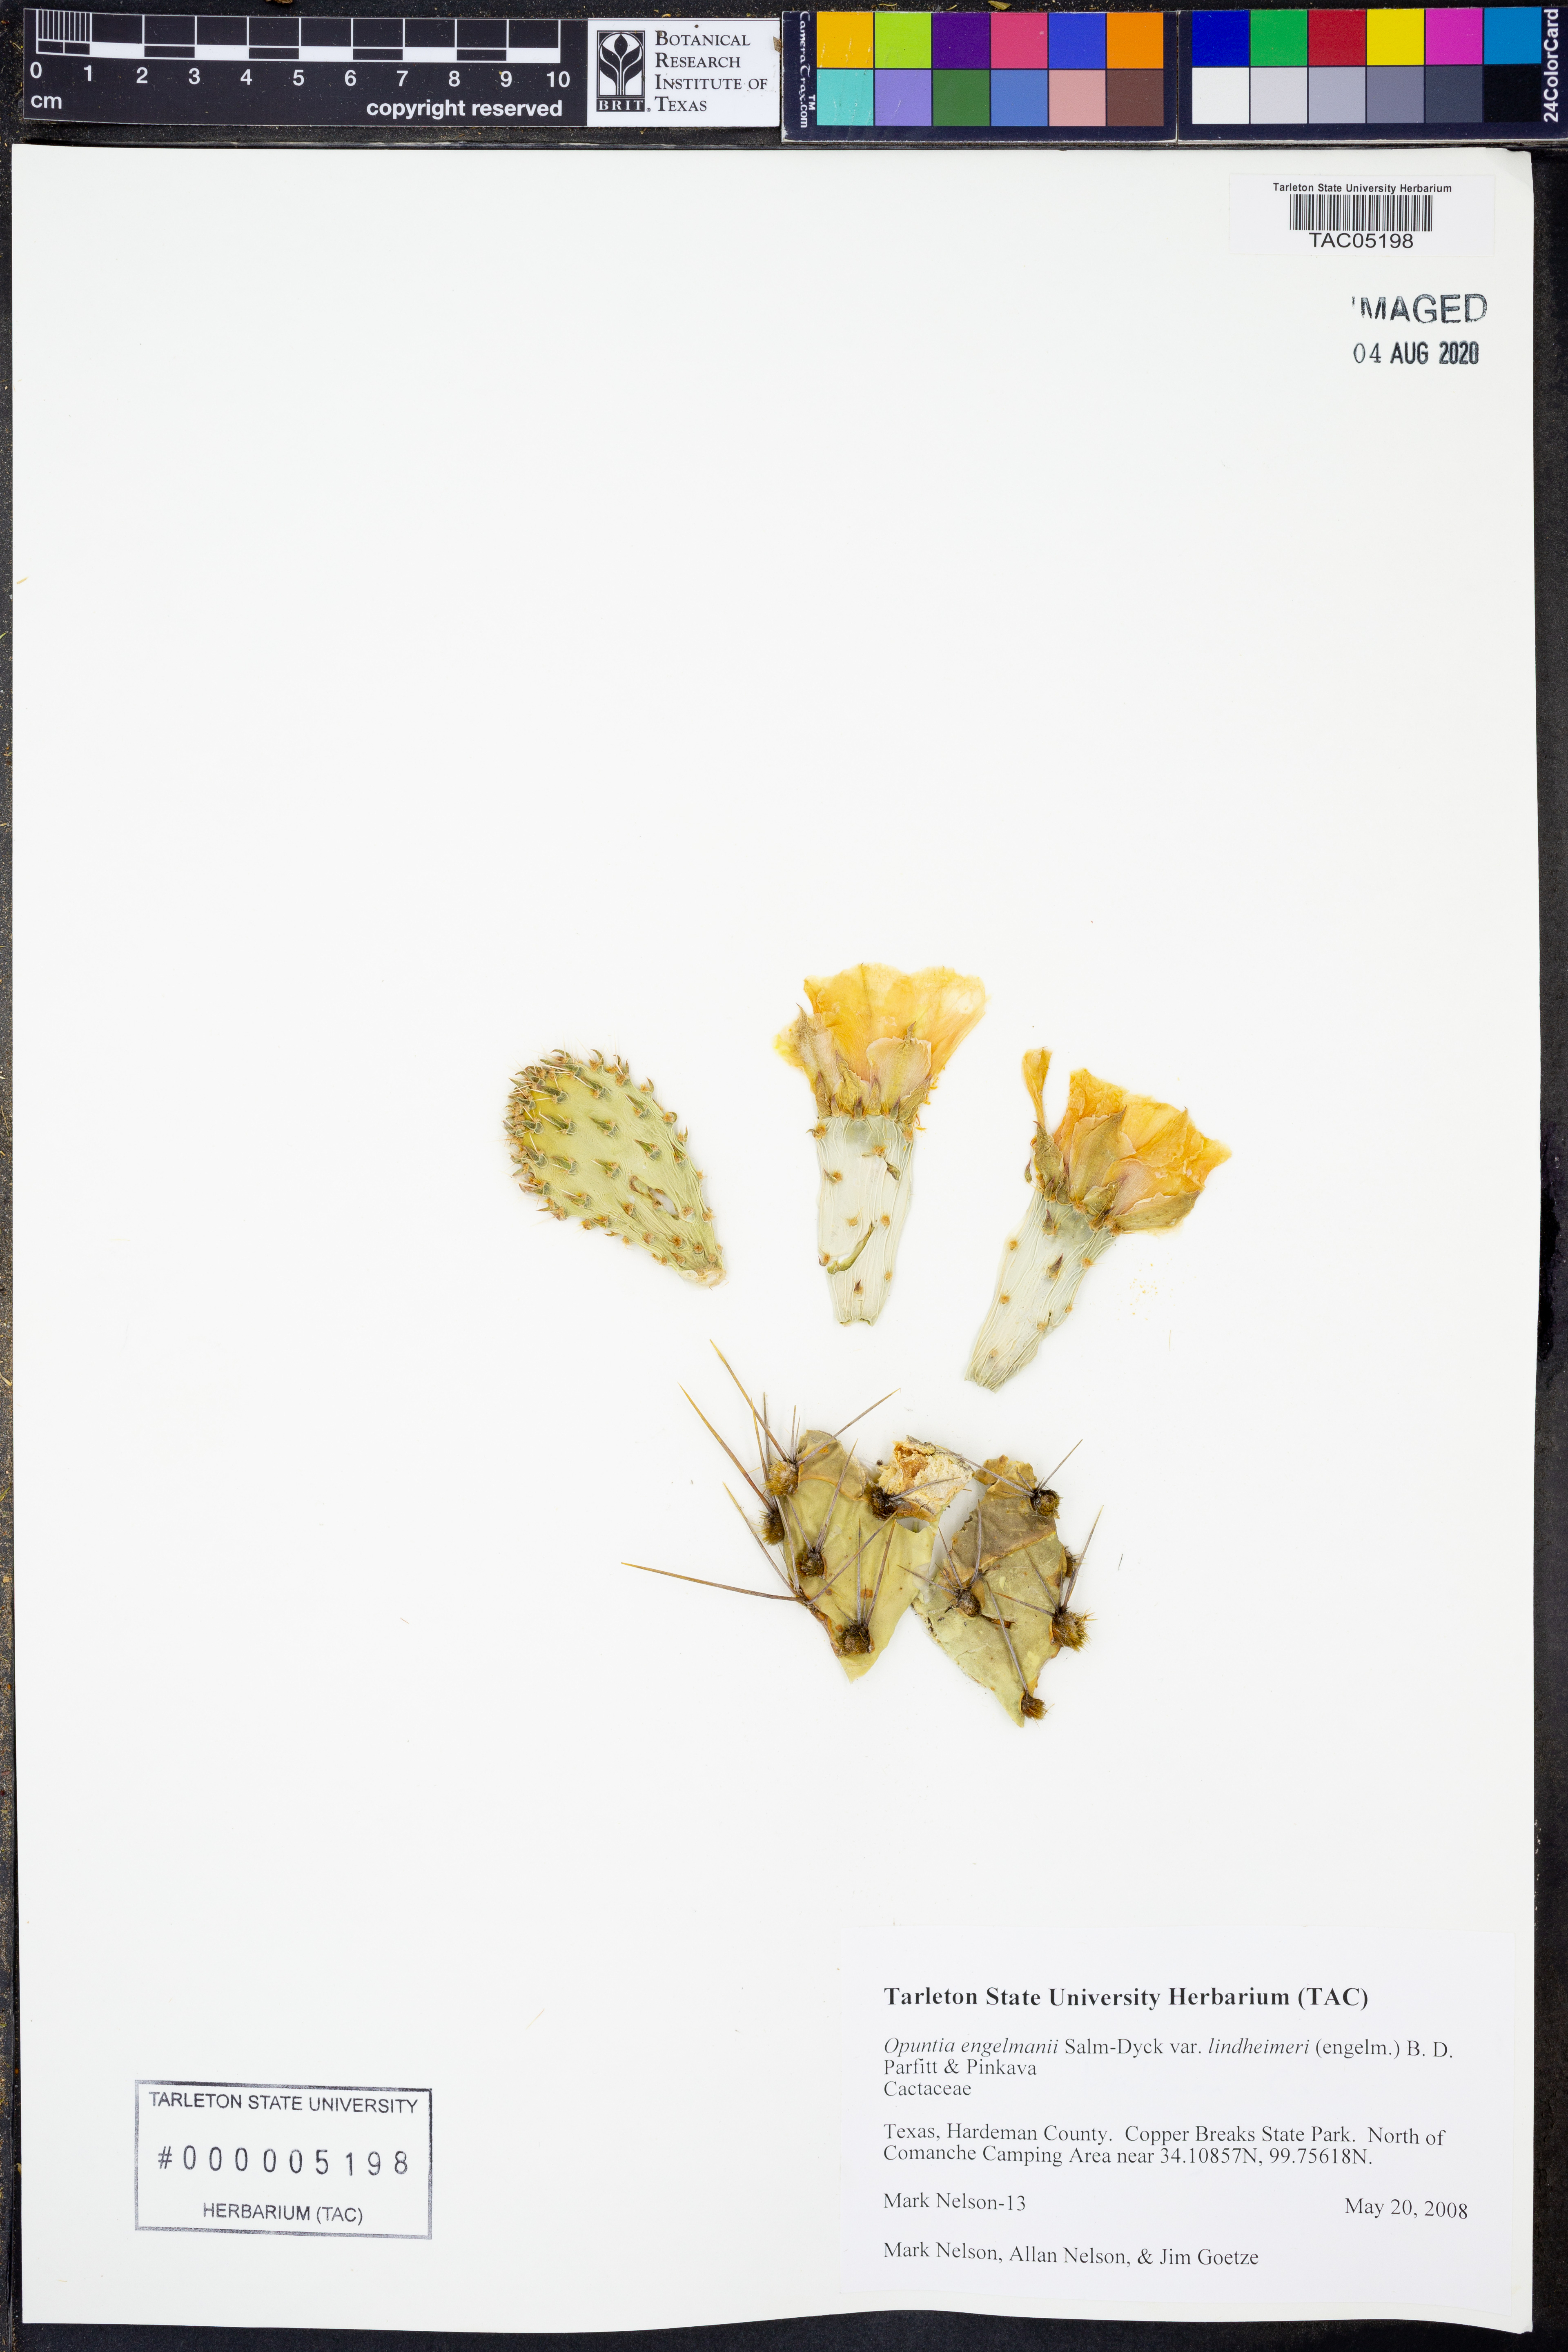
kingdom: Plantae
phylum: Tracheophyta
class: Magnoliopsida
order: Caryophyllales
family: Cactaceae
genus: Opuntia
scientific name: Opuntia engelmannii
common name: Cactus-apple
